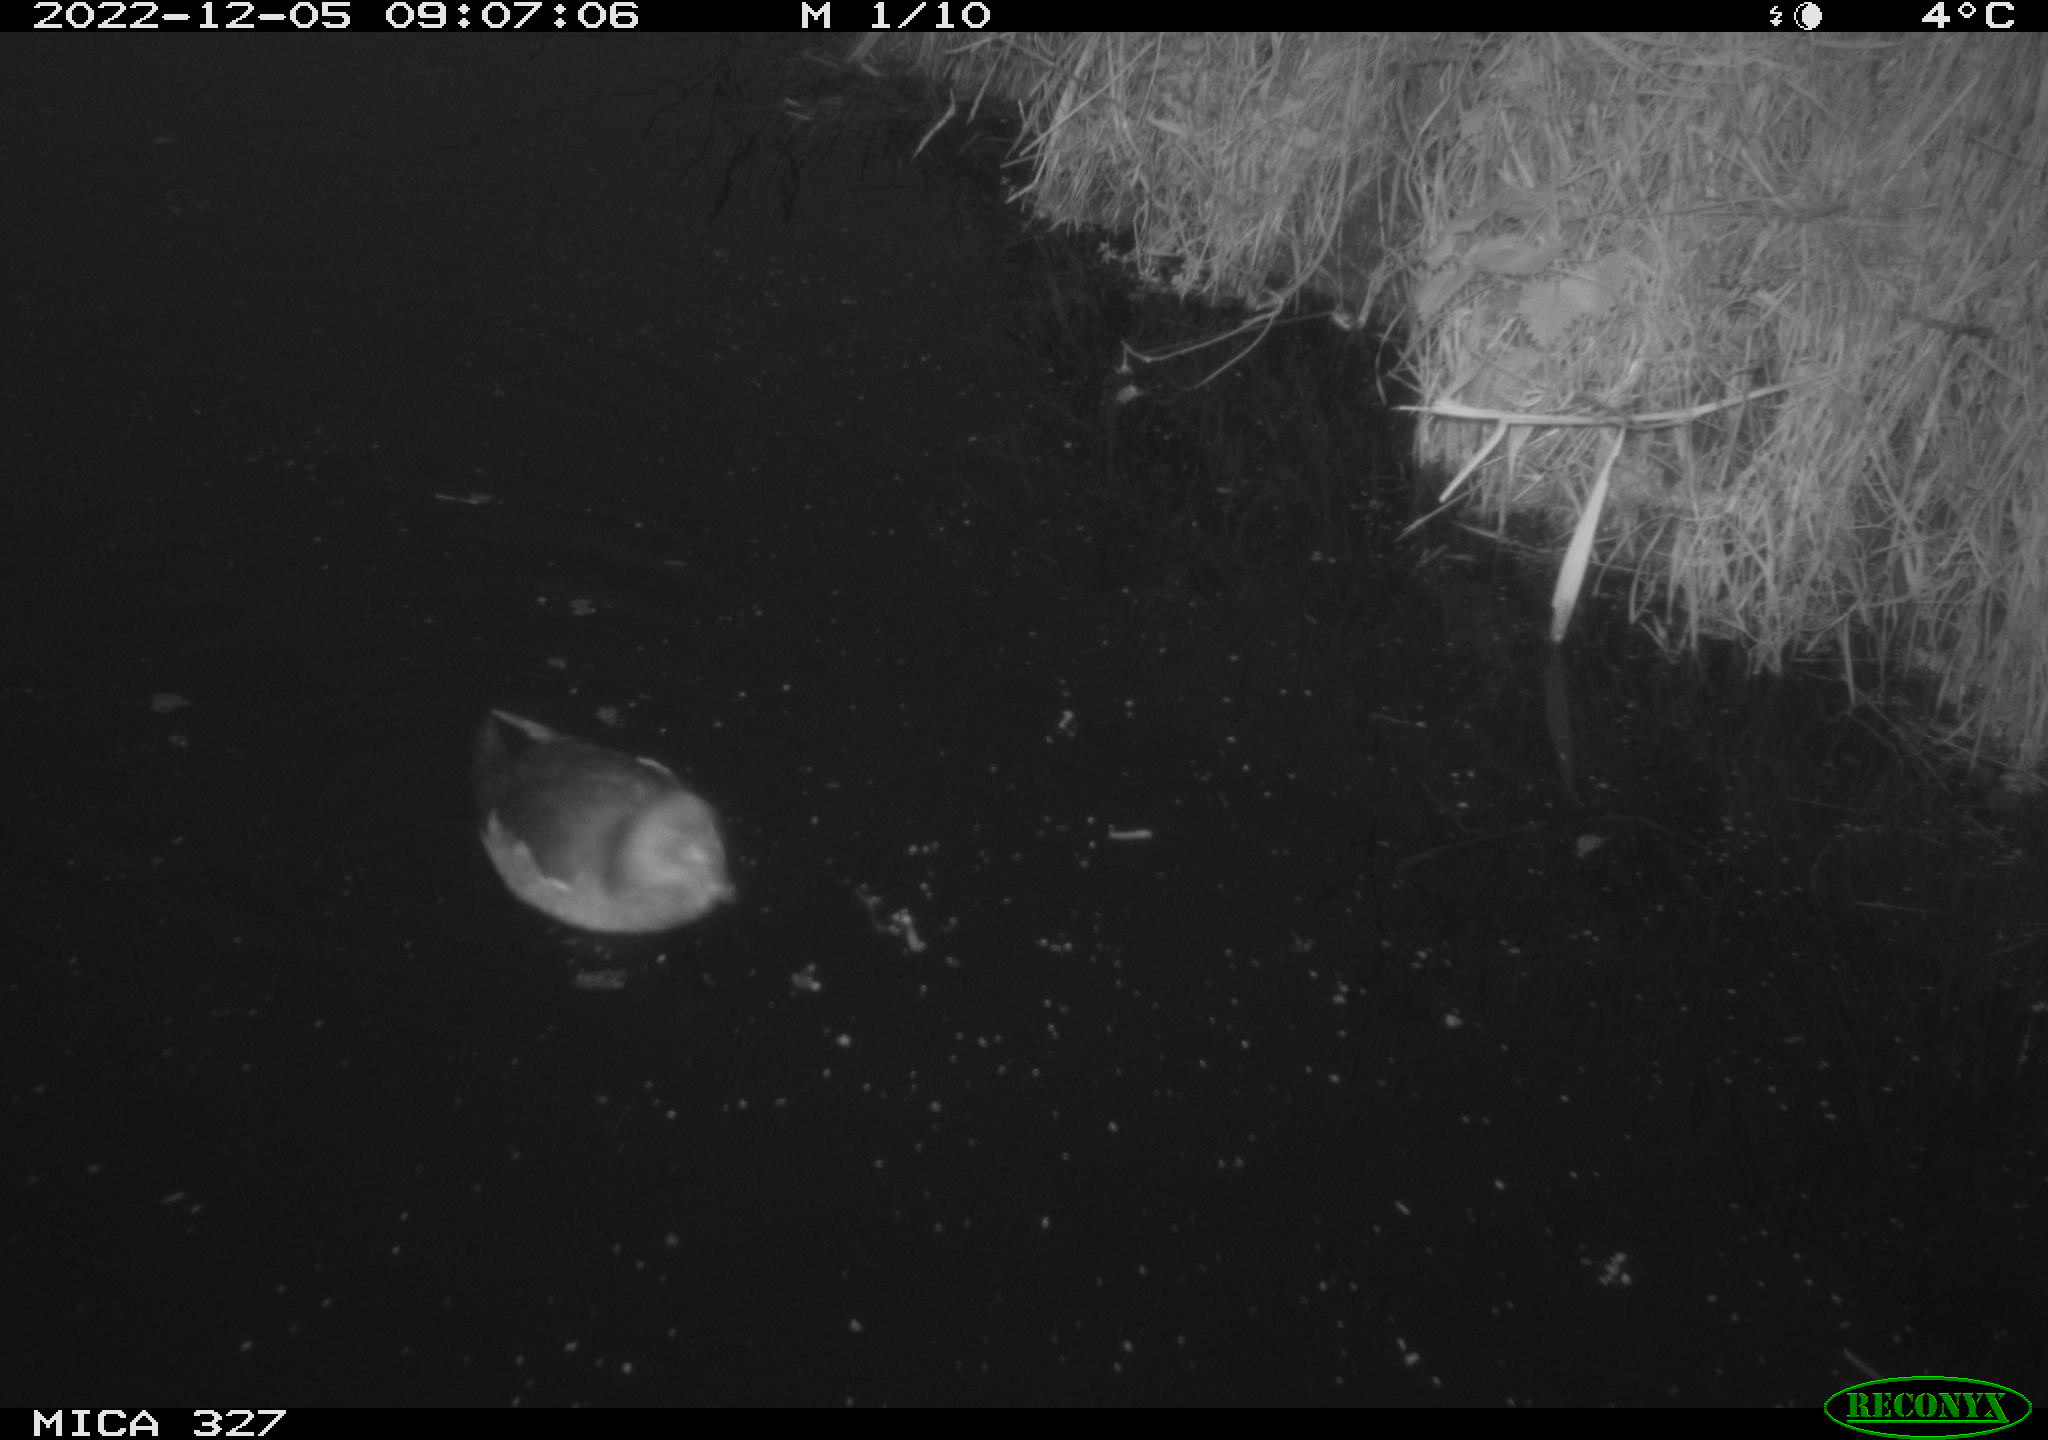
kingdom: Animalia
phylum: Chordata
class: Aves
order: Gruiformes
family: Rallidae
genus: Gallinula
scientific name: Gallinula chloropus
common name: Common moorhen
